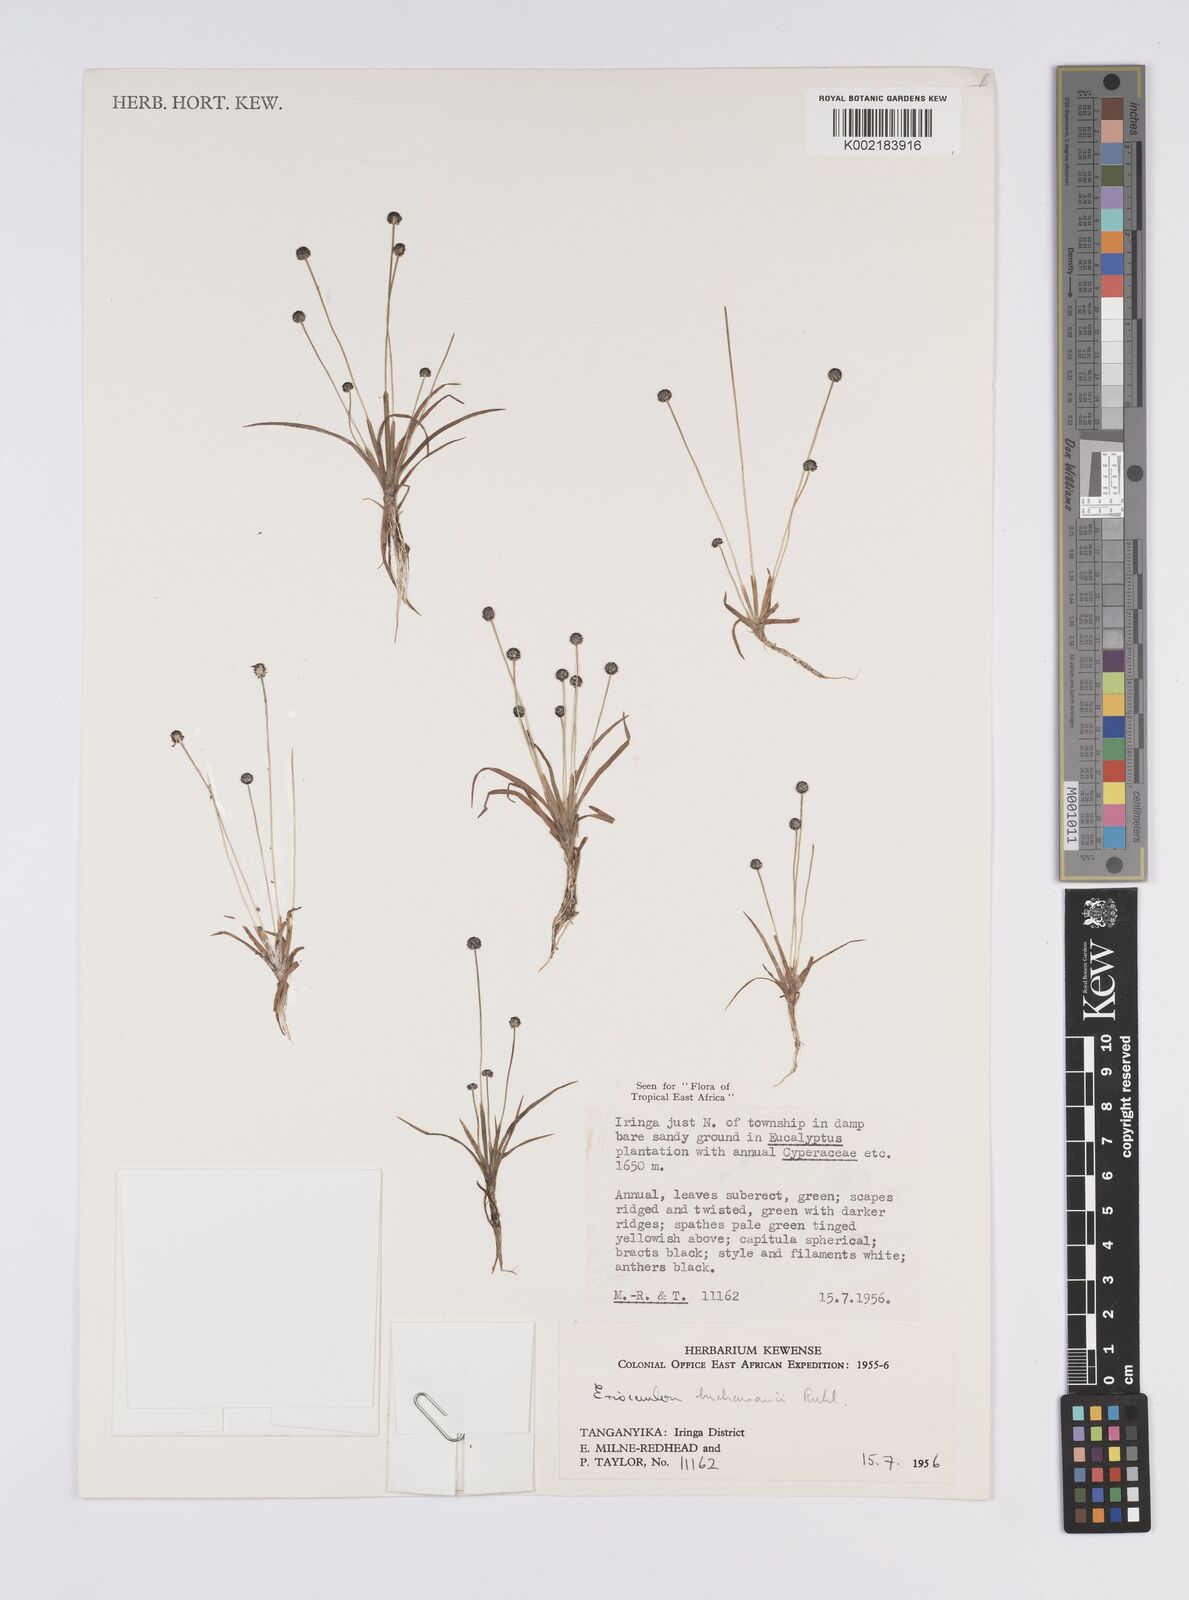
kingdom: Plantae
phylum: Tracheophyta
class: Liliopsida
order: Poales
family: Eriocaulaceae
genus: Eriocaulon
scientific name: Eriocaulon buchananii
